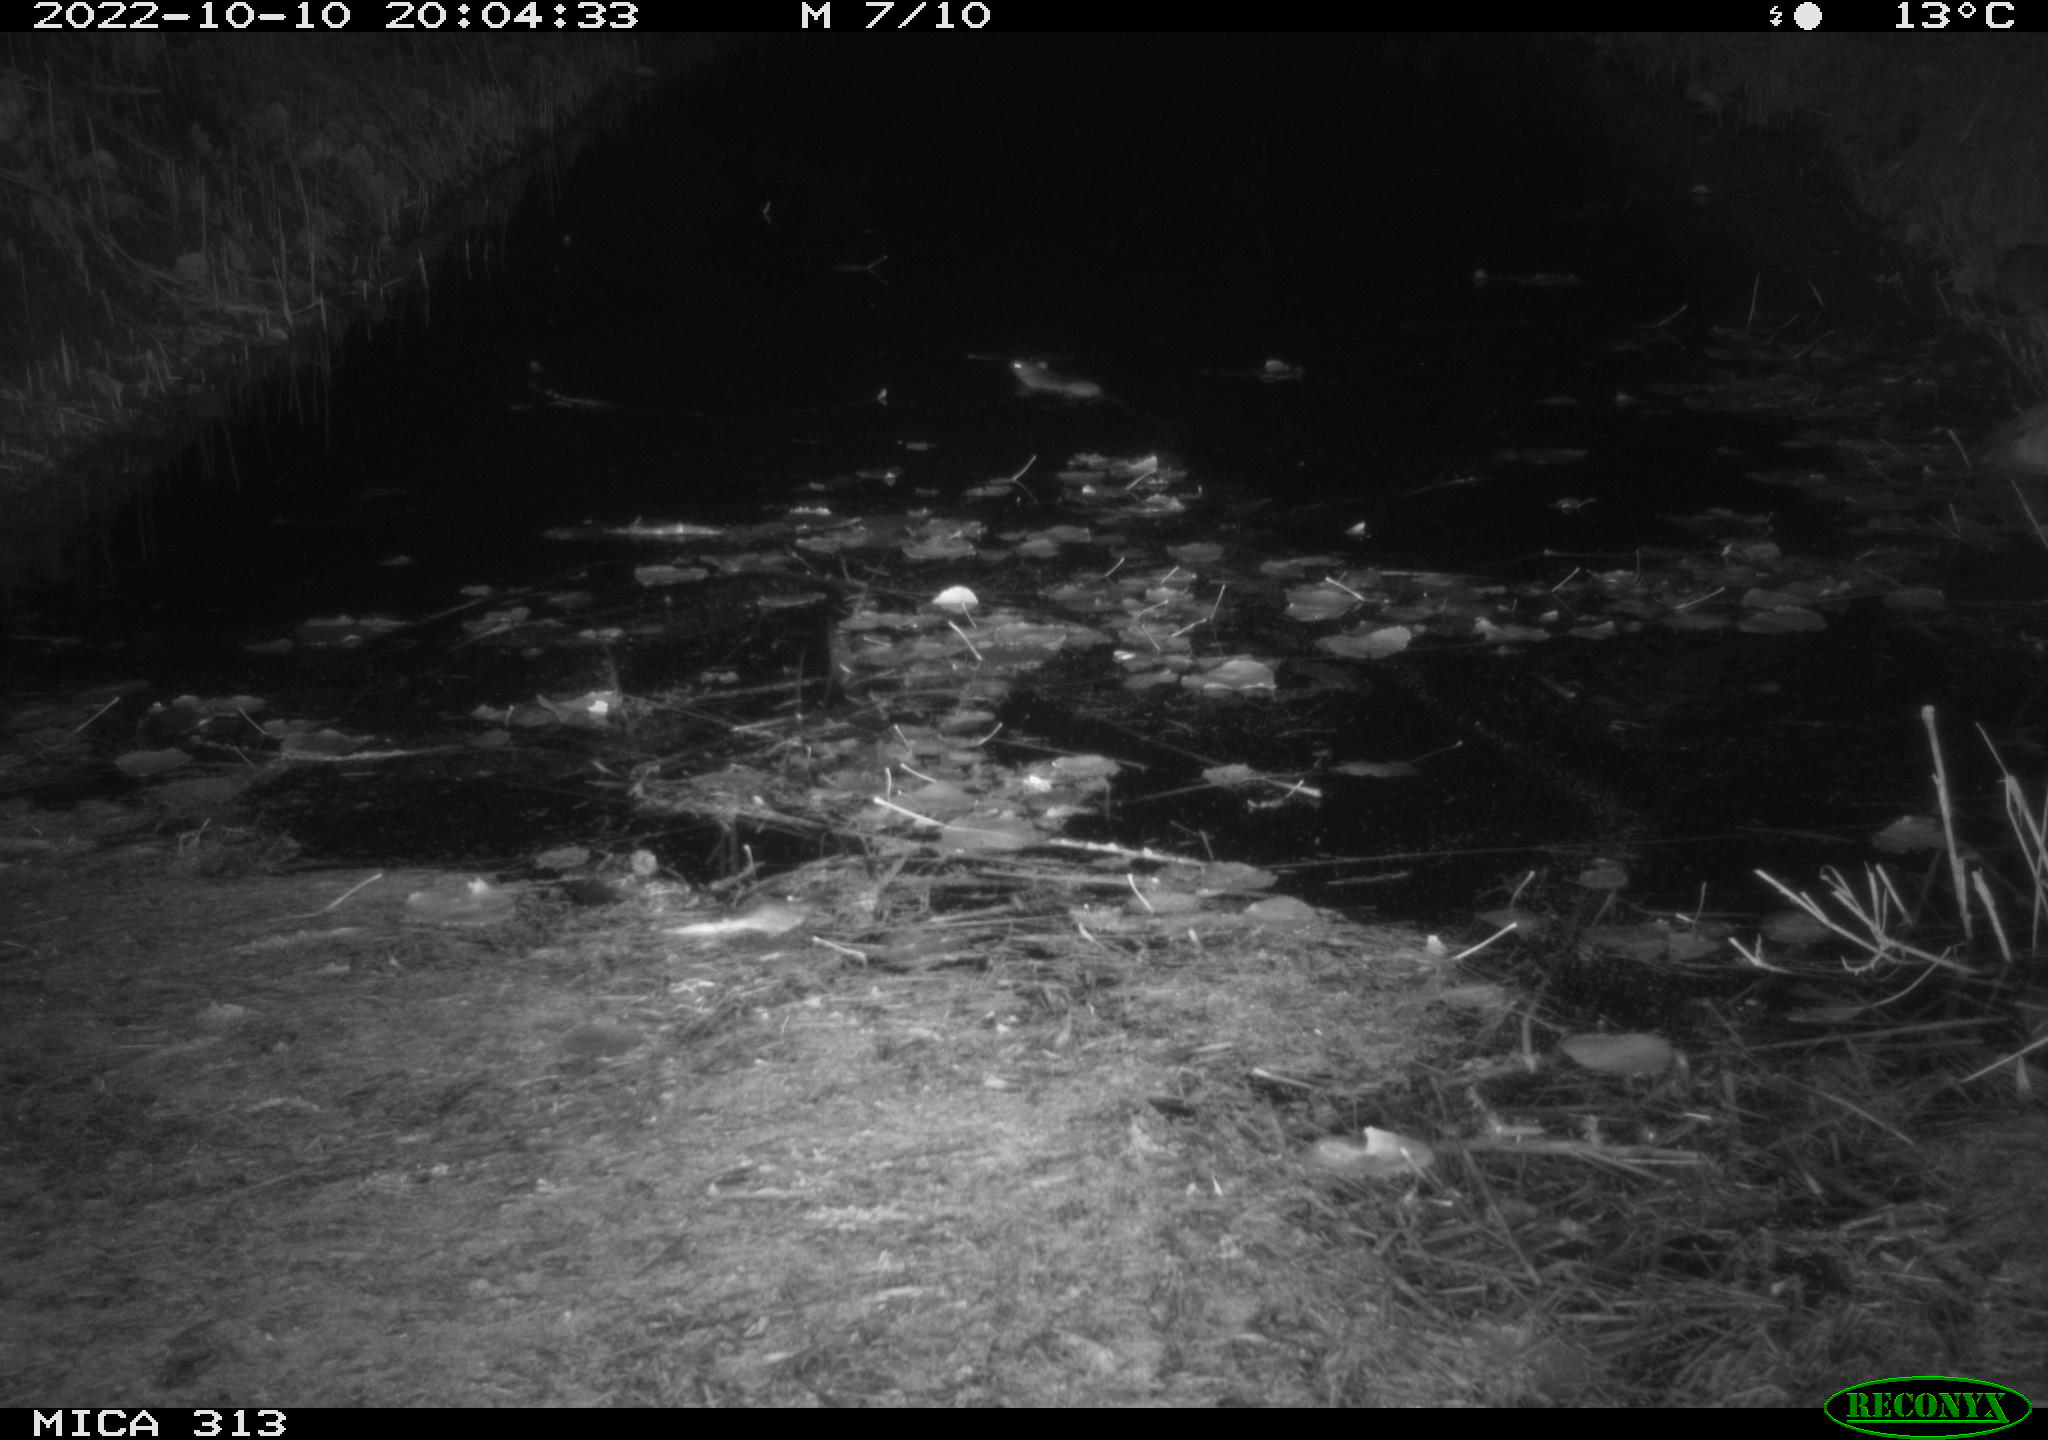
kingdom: Animalia
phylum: Chordata
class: Mammalia
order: Rodentia
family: Muridae
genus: Rattus
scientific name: Rattus norvegicus
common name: Brown rat
